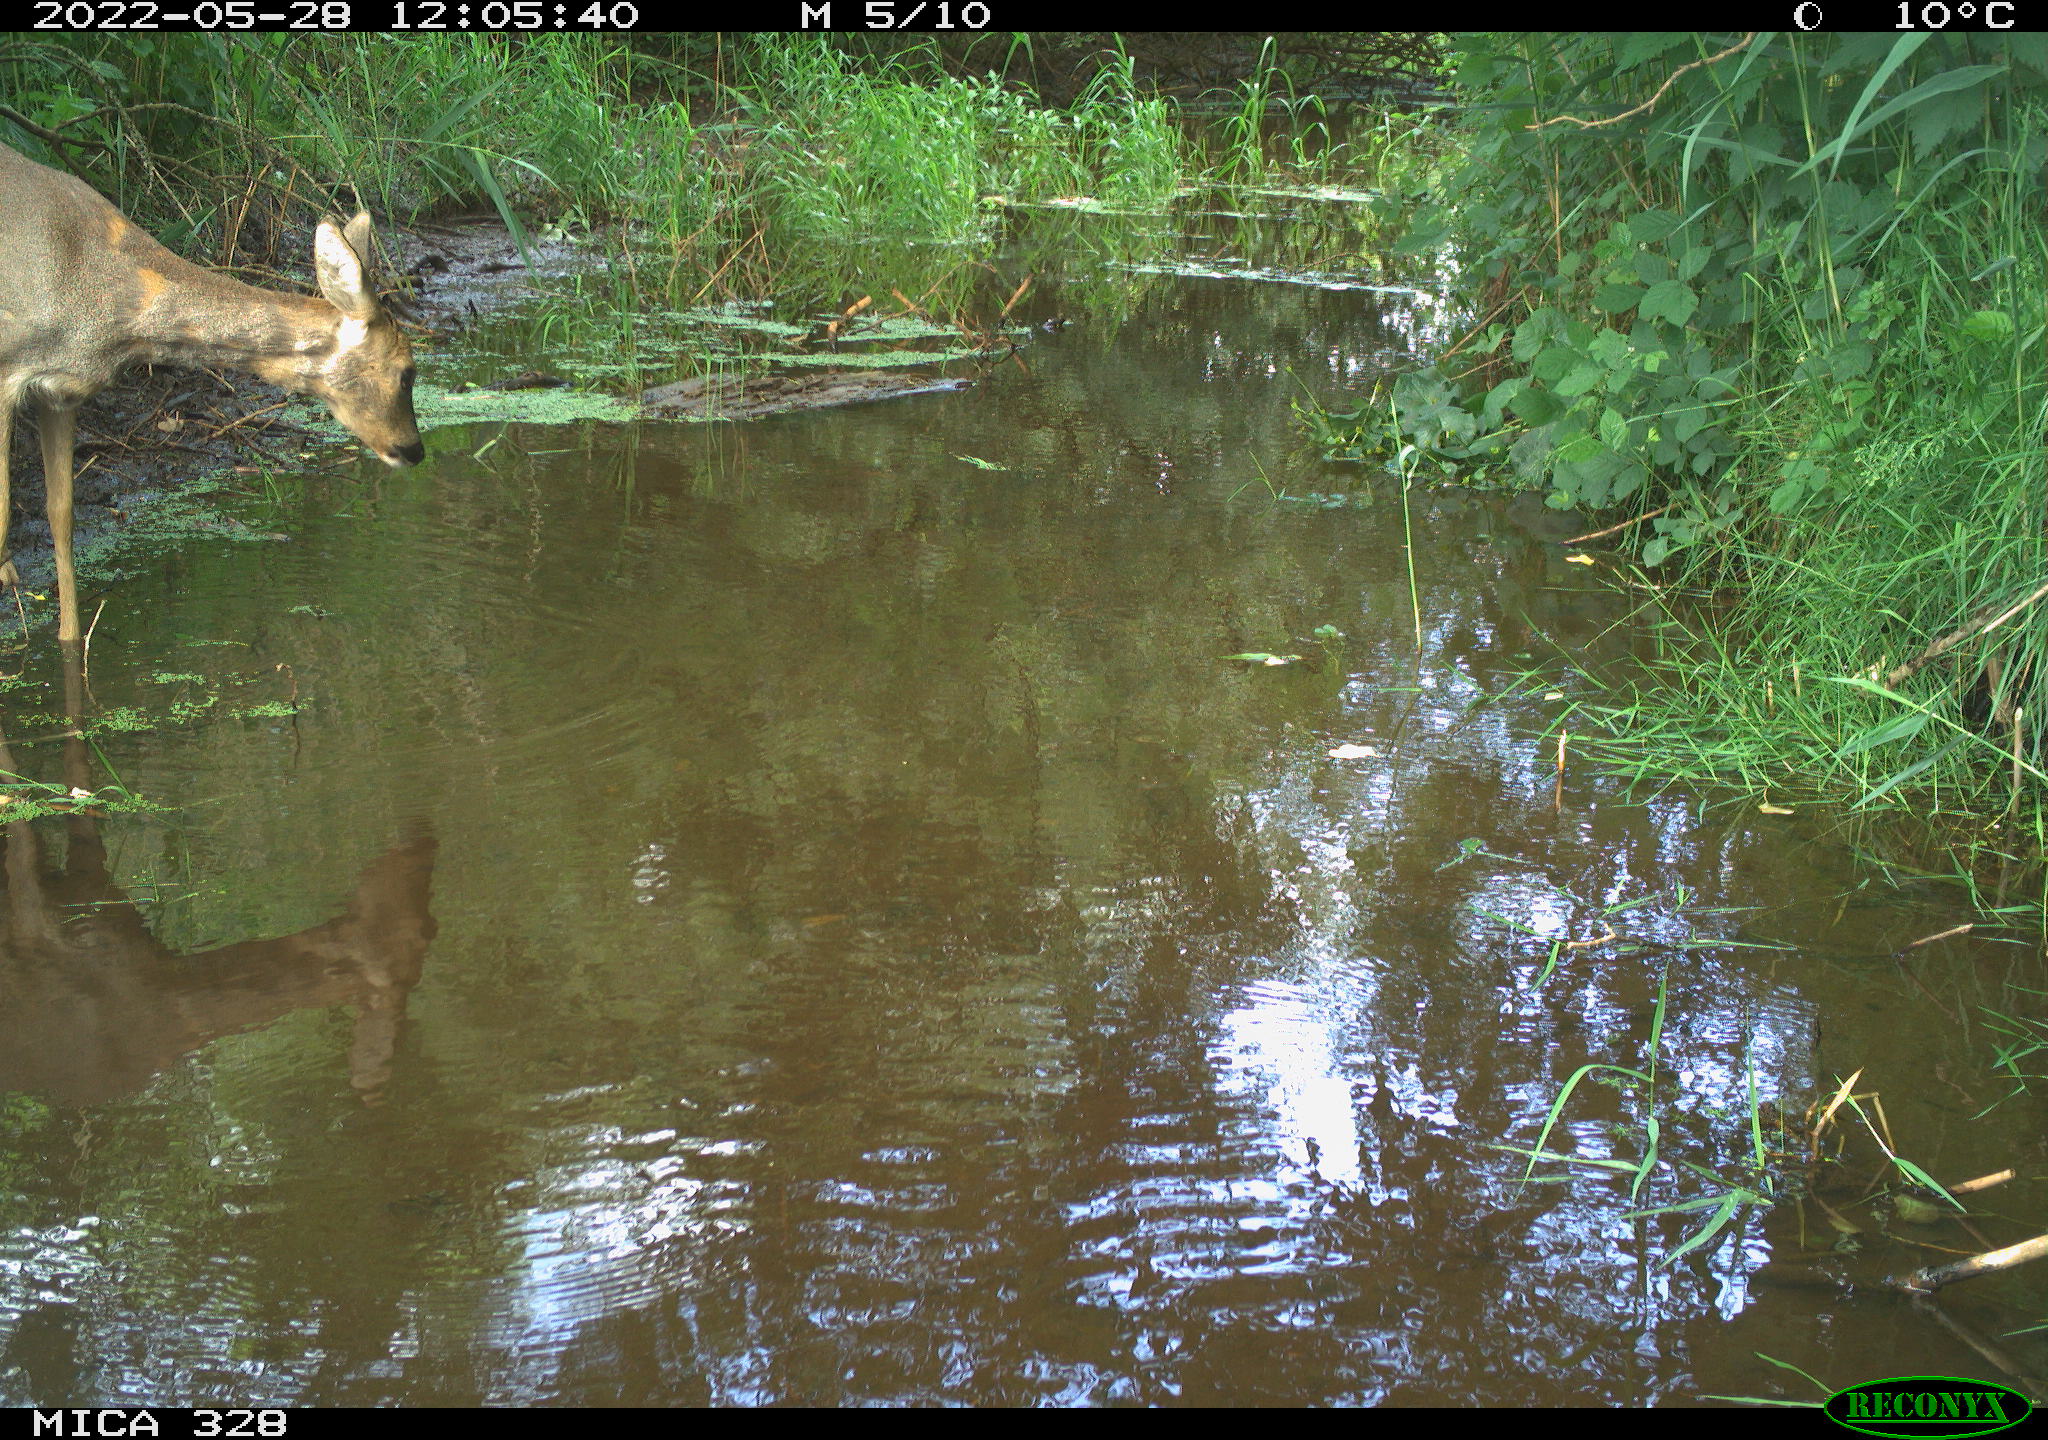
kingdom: Animalia
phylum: Chordata
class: Mammalia
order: Artiodactyla
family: Cervidae
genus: Capreolus
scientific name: Capreolus capreolus
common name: Western roe deer
